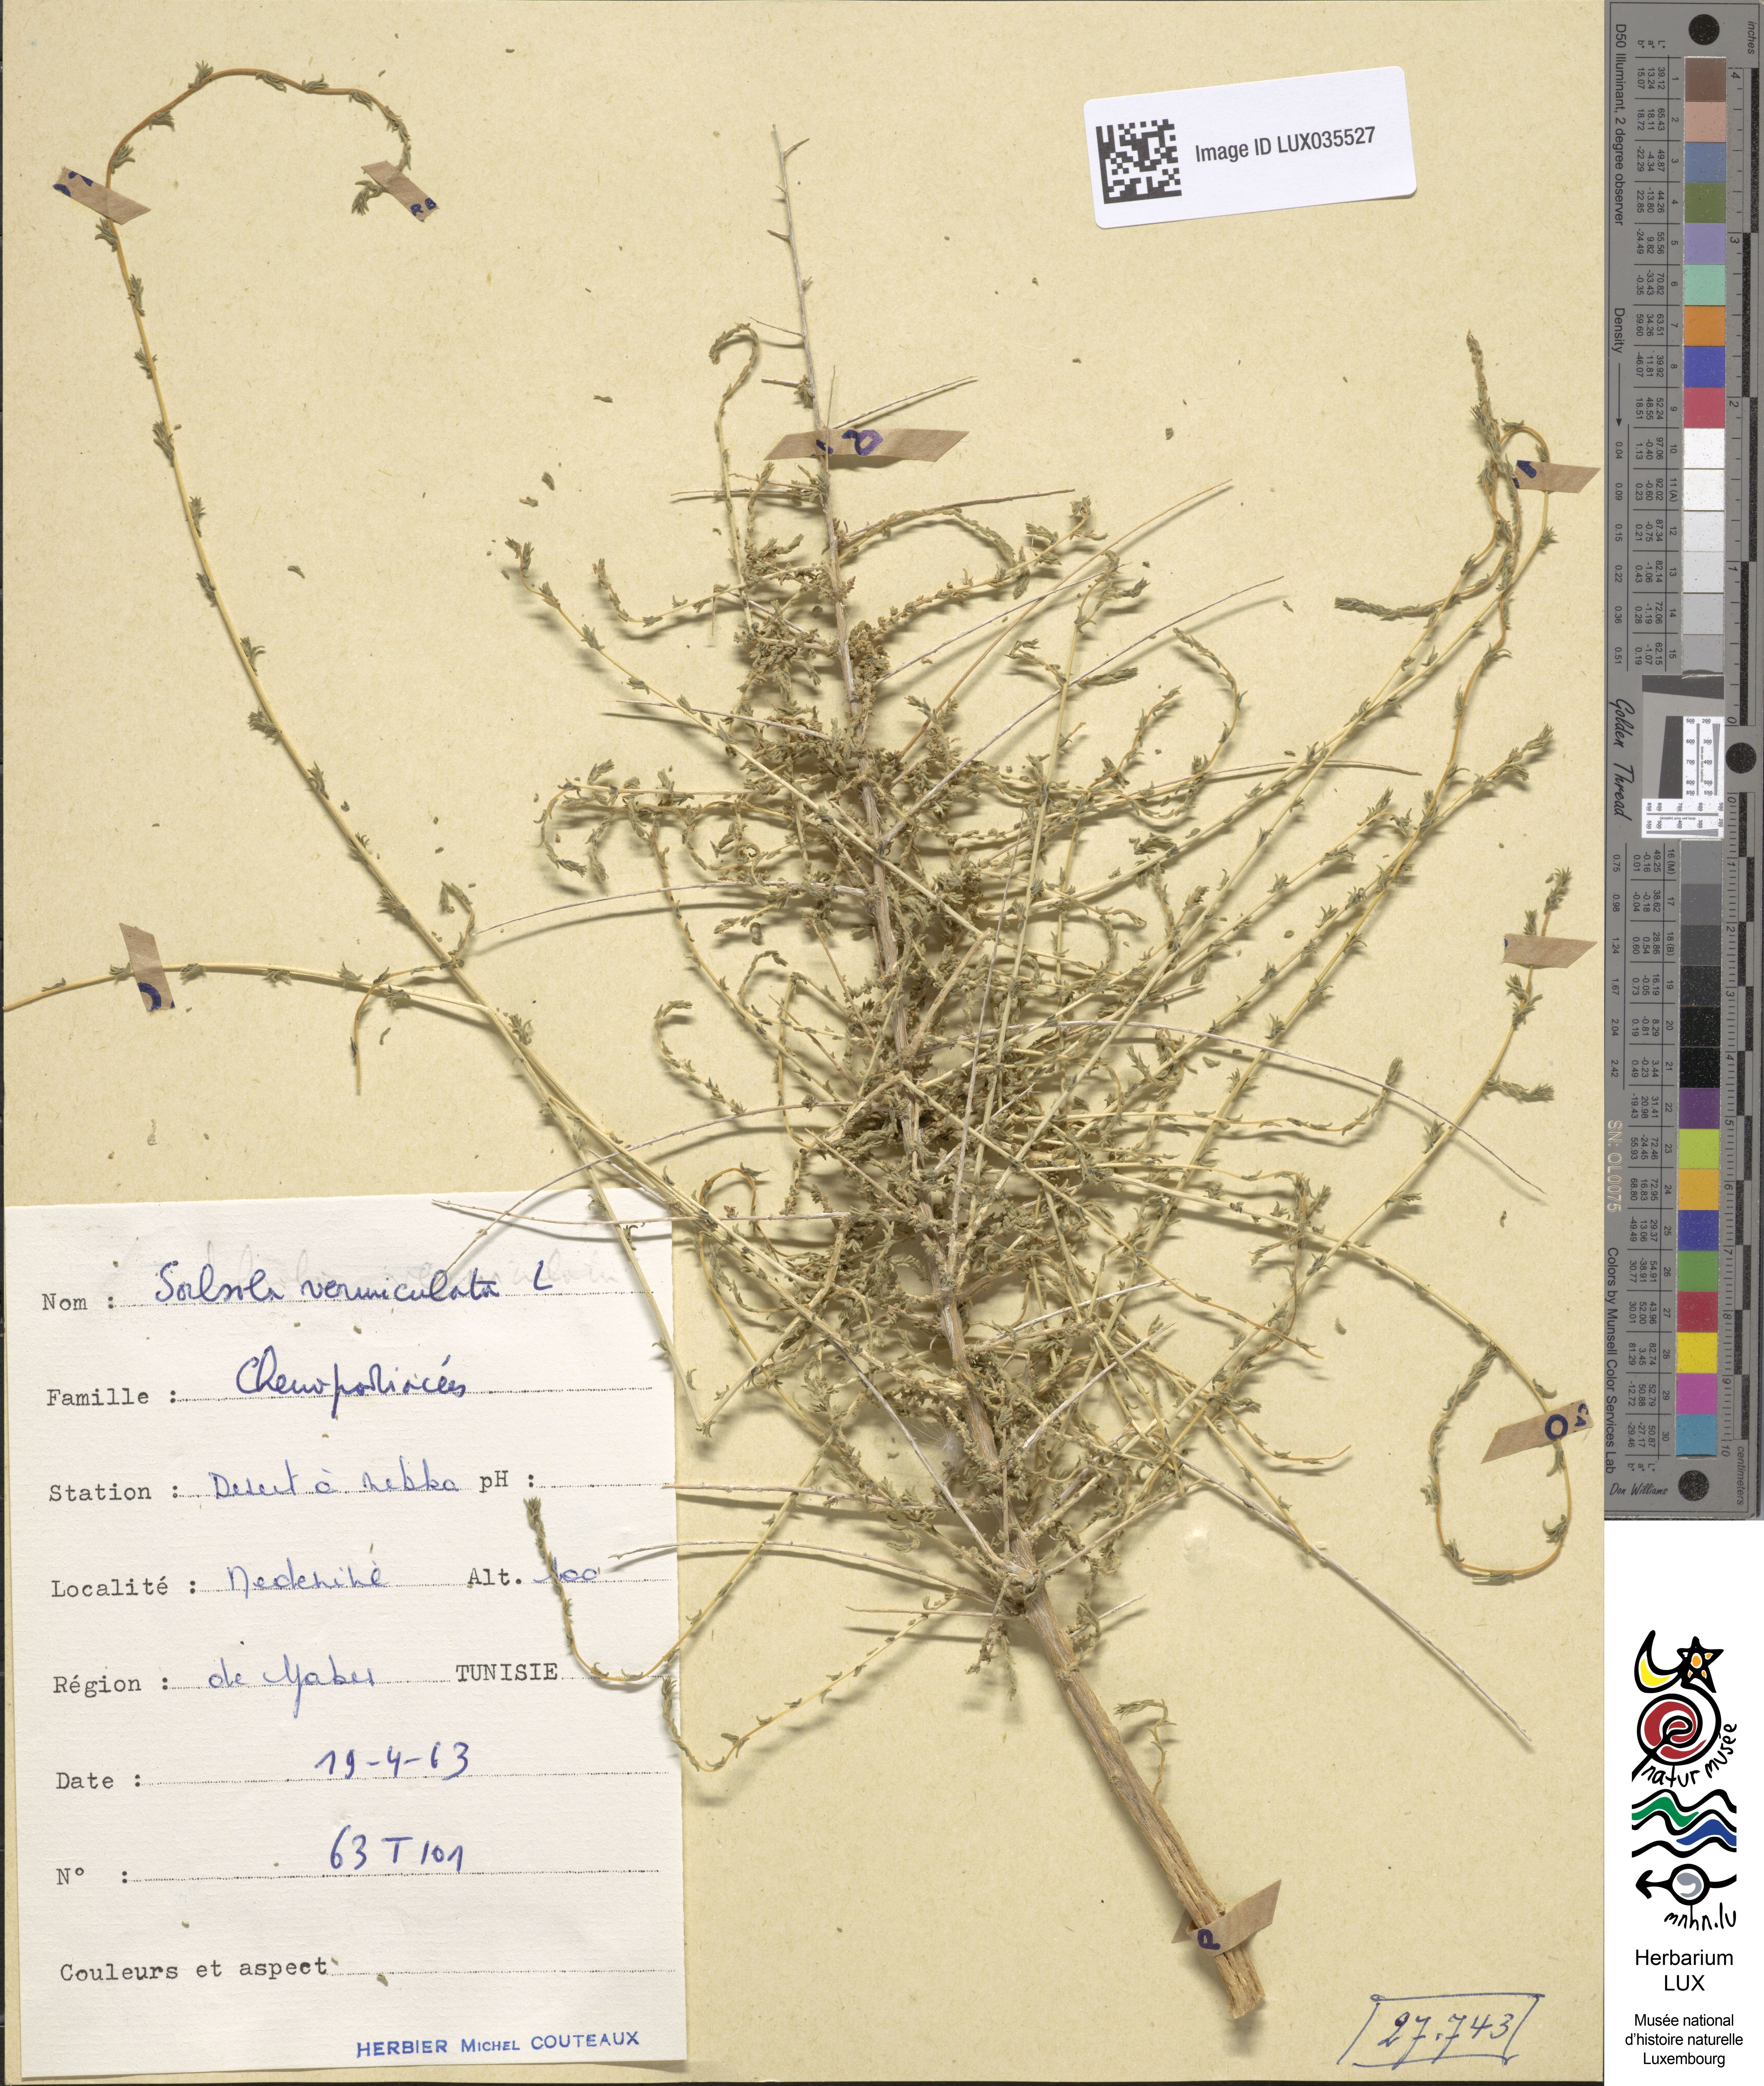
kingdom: Plantae
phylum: Tracheophyta
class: Magnoliopsida
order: Caryophyllales
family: Amaranthaceae
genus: Nitrosalsola
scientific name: Nitrosalsola vermiculata
